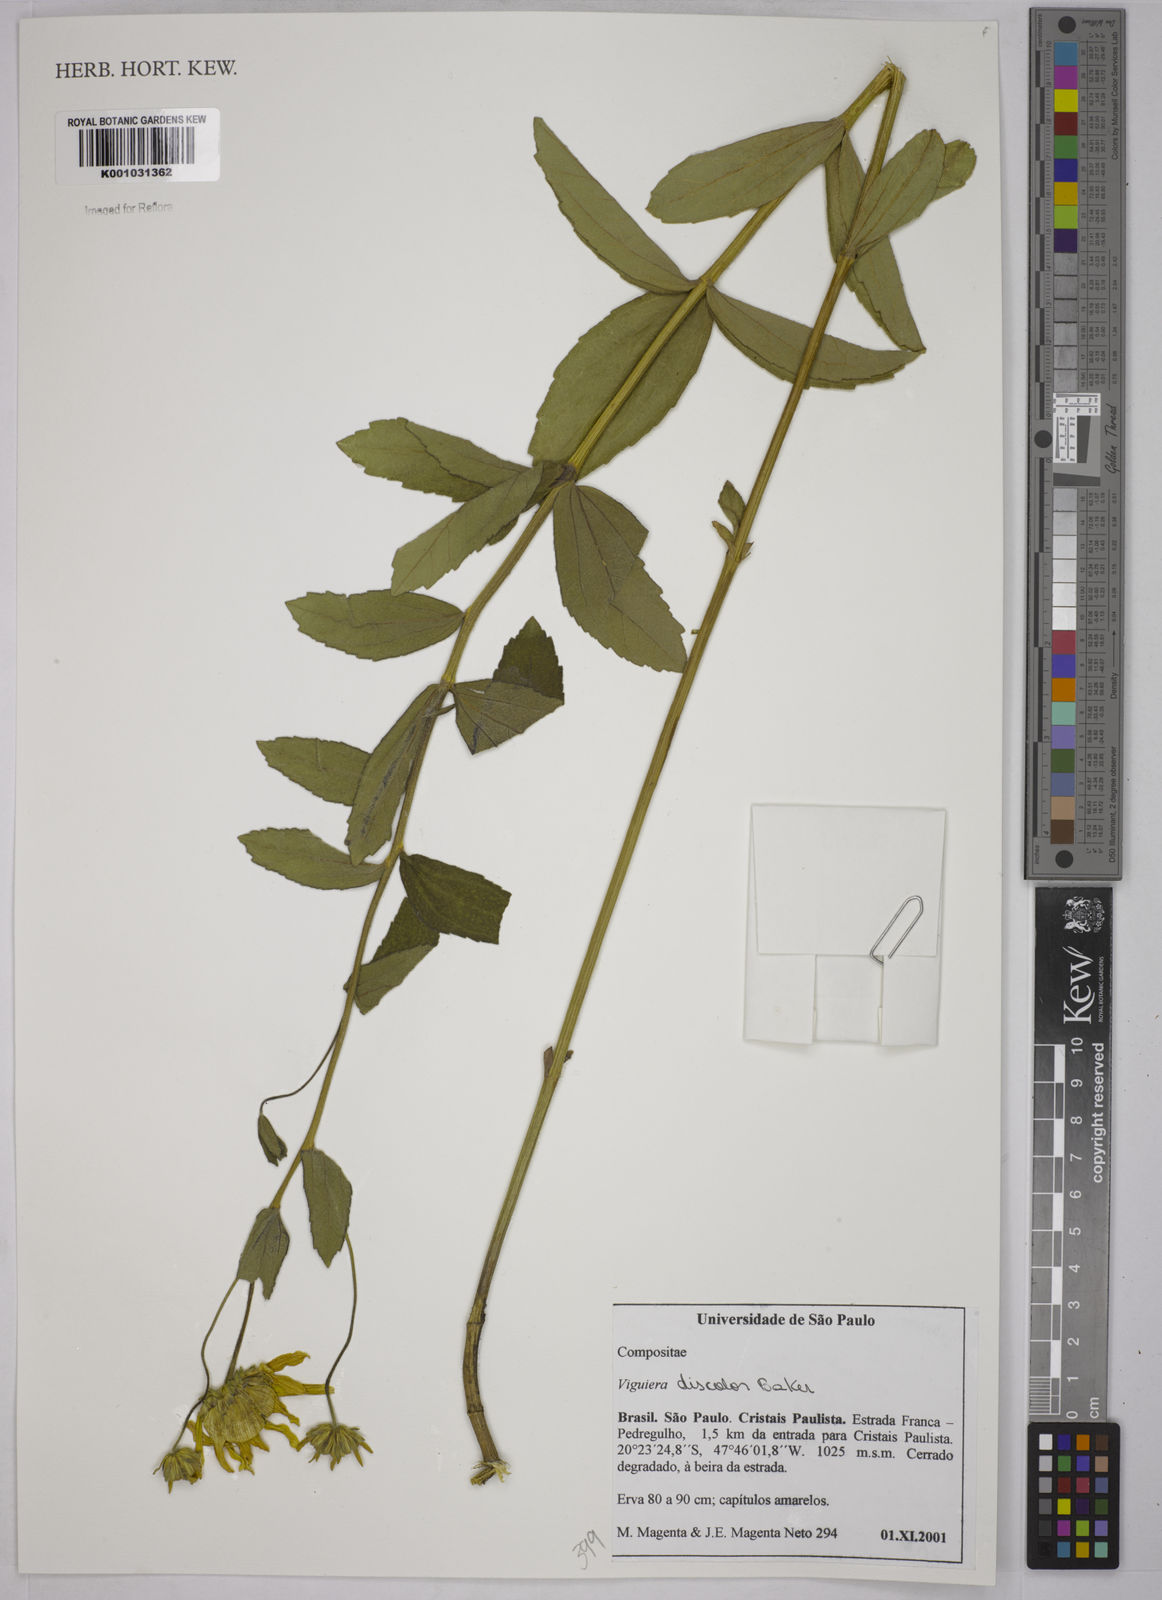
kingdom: Plantae
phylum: Tracheophyta
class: Magnoliopsida
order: Asterales
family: Asteraceae
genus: Aldama
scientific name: Aldama discolor
